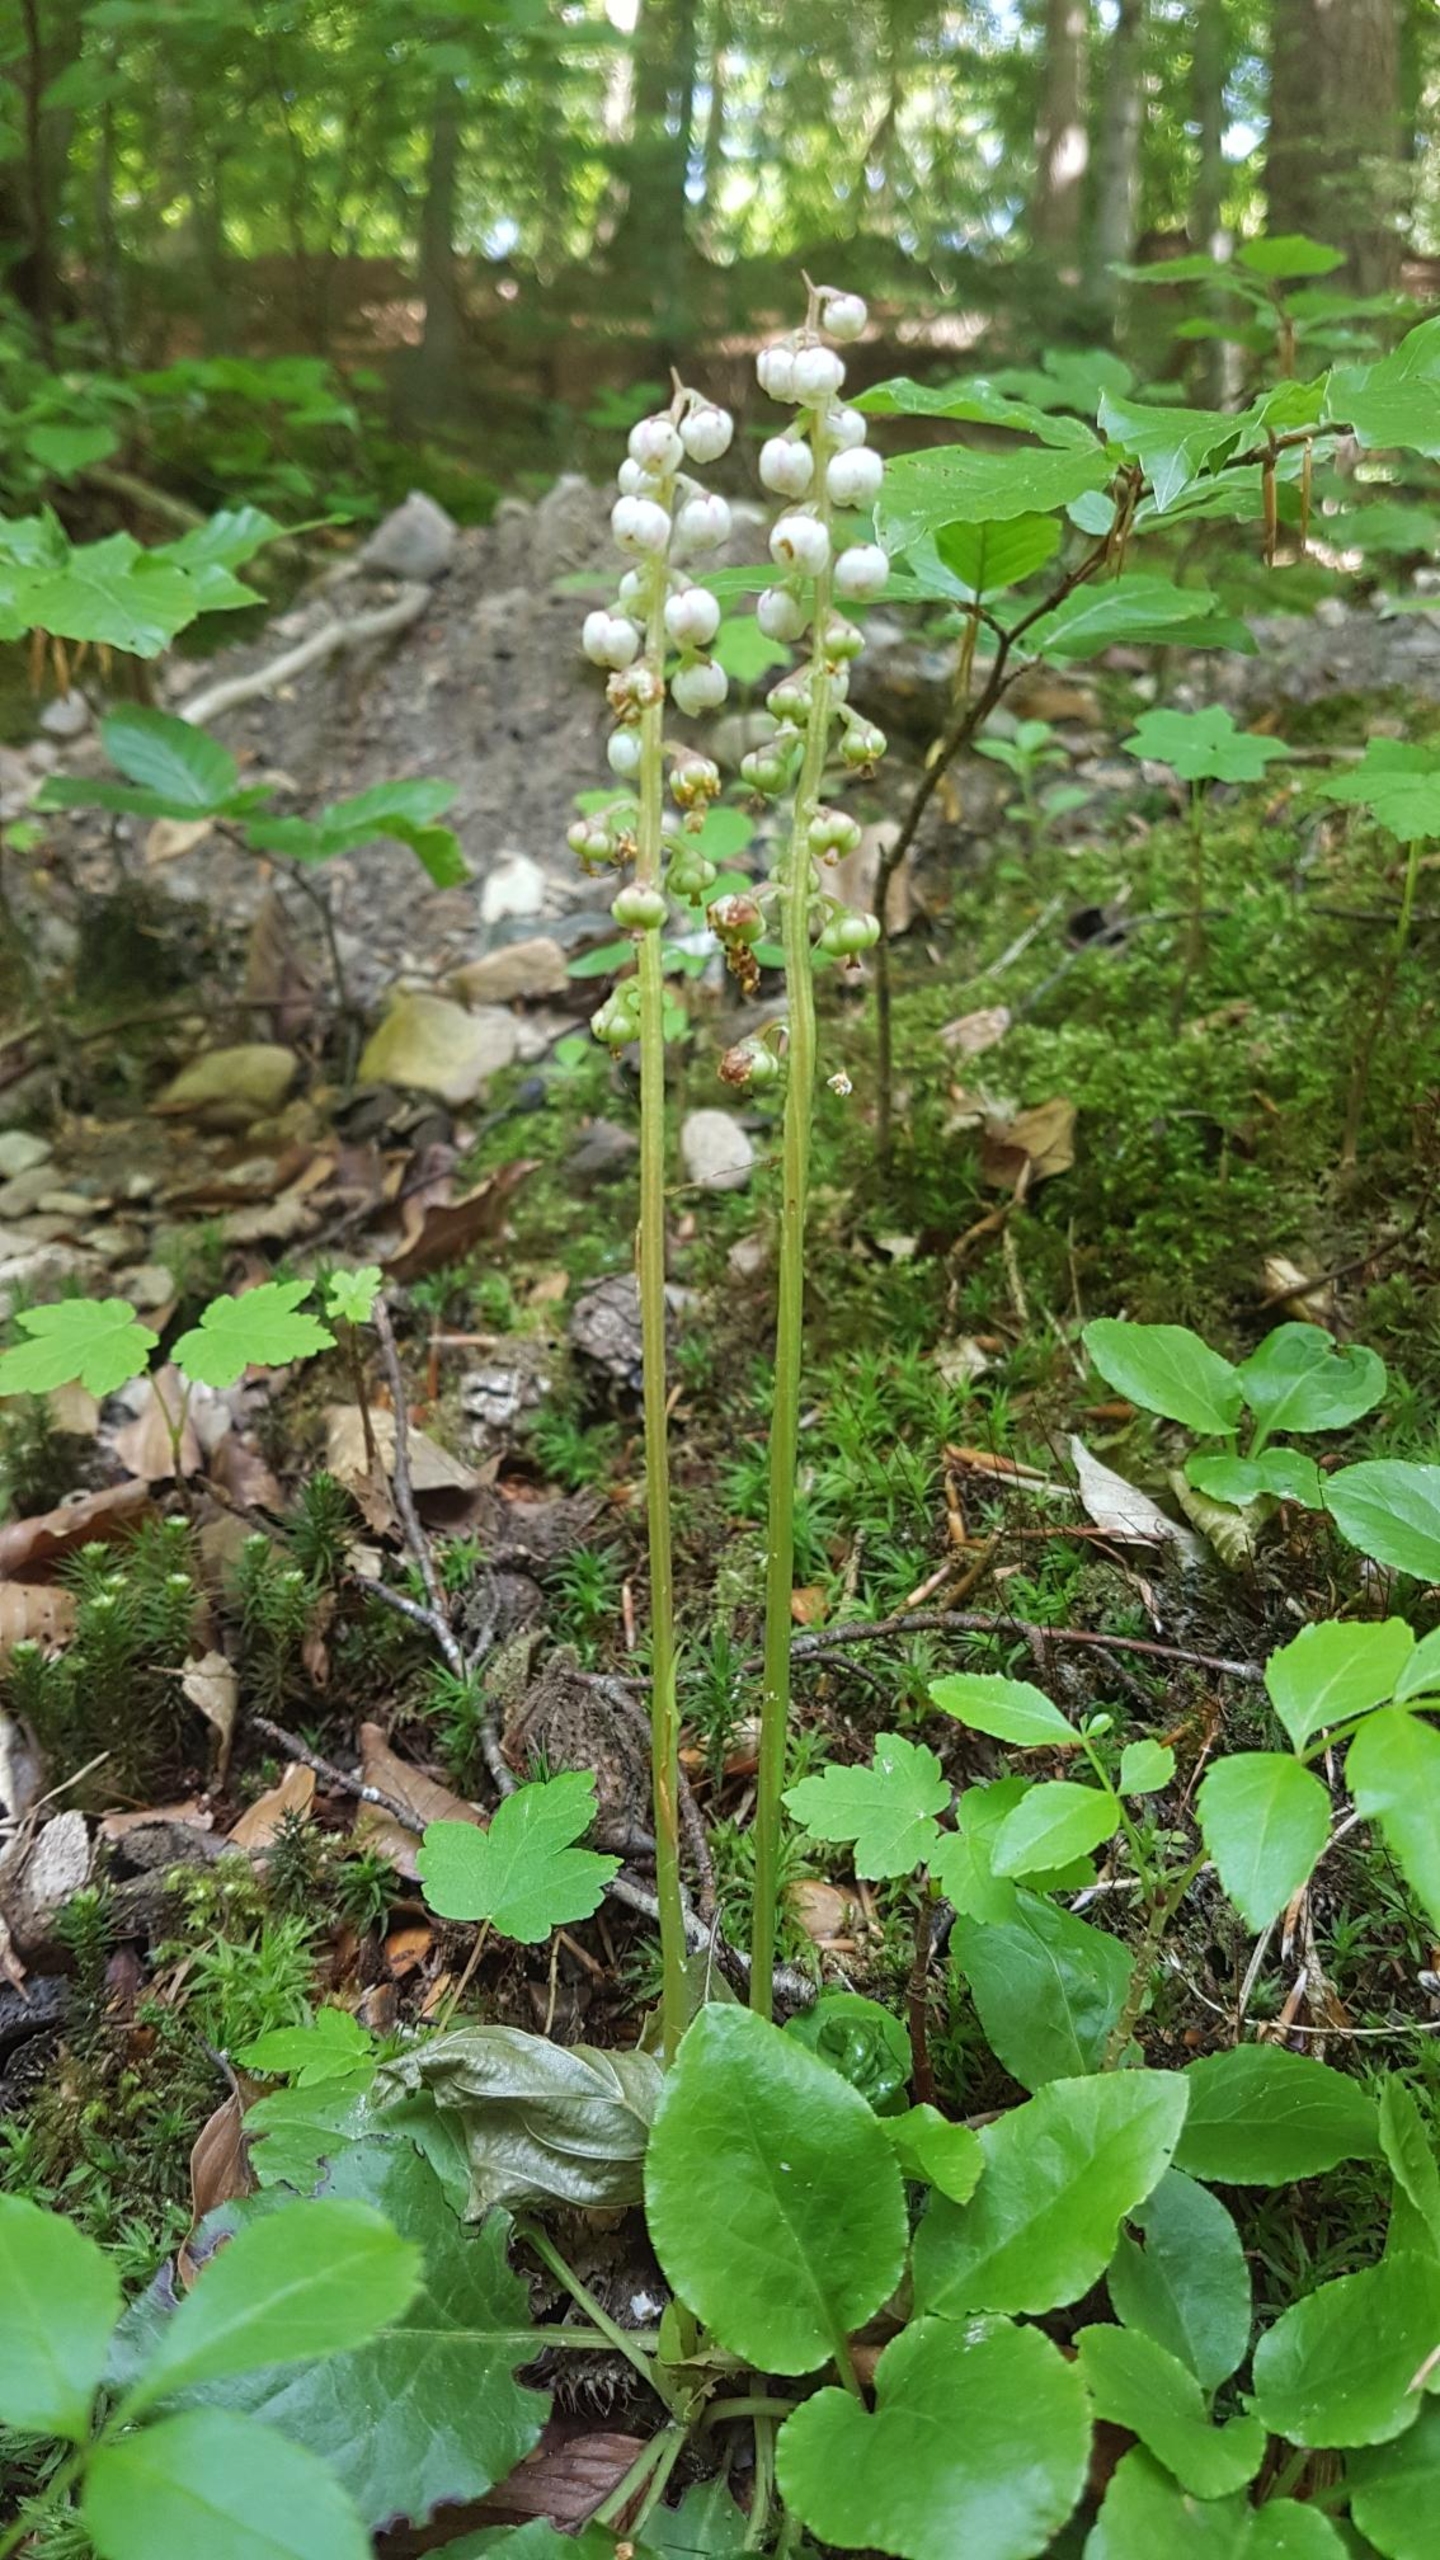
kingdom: Plantae
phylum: Tracheophyta
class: Magnoliopsida
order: Ericales
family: Ericaceae
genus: Pyrola
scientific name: Pyrola minor
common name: Liden vintergrøn
